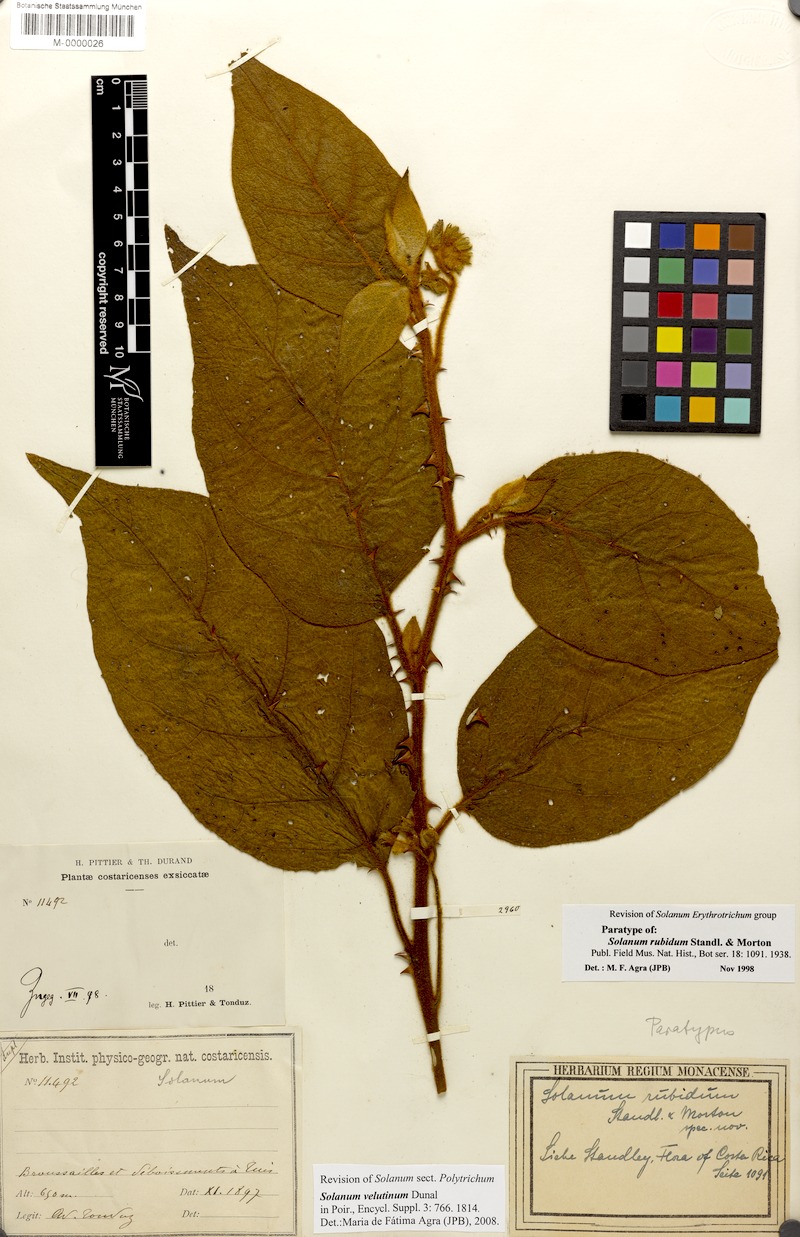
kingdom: Plantae
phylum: Tracheophyta
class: Magnoliopsida
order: Solanales
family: Solanaceae
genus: Solanum
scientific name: Solanum velutinum
